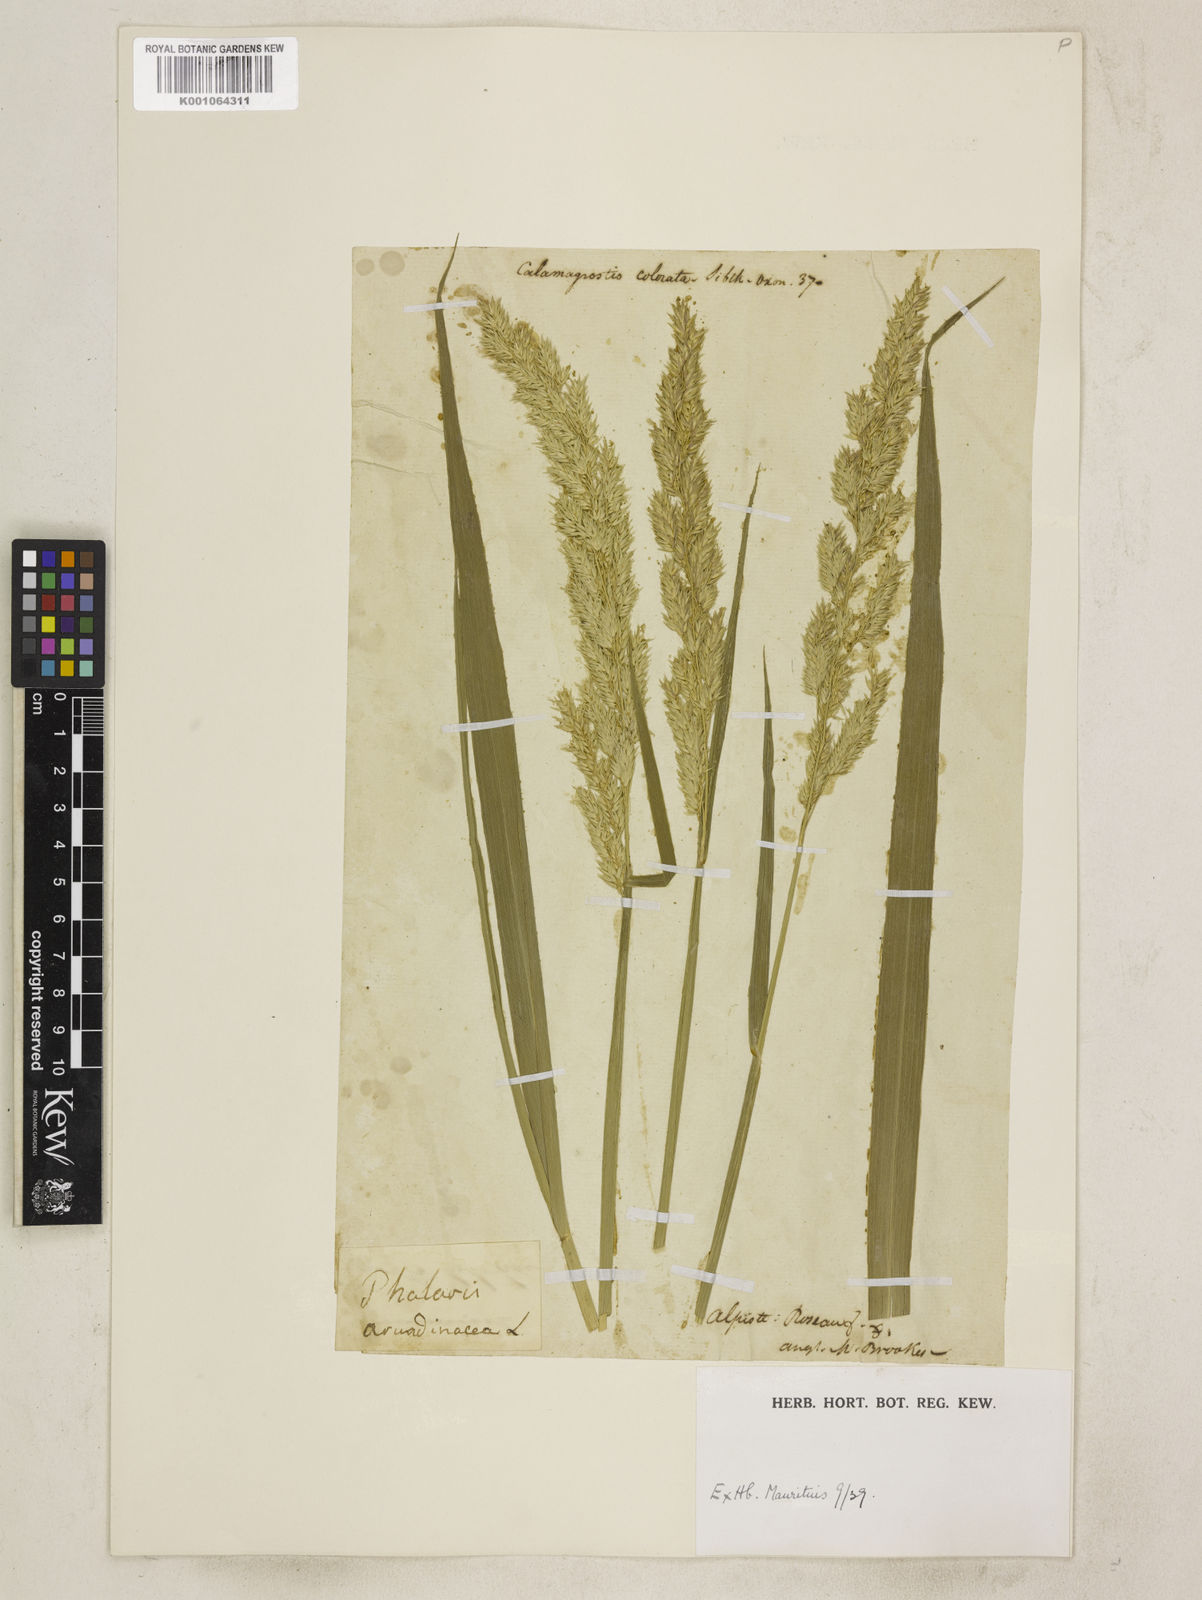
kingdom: Plantae
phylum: Tracheophyta
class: Liliopsida
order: Poales
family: Poaceae
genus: Phalaris
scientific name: Phalaris arundinacea
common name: Reed canary-grass
